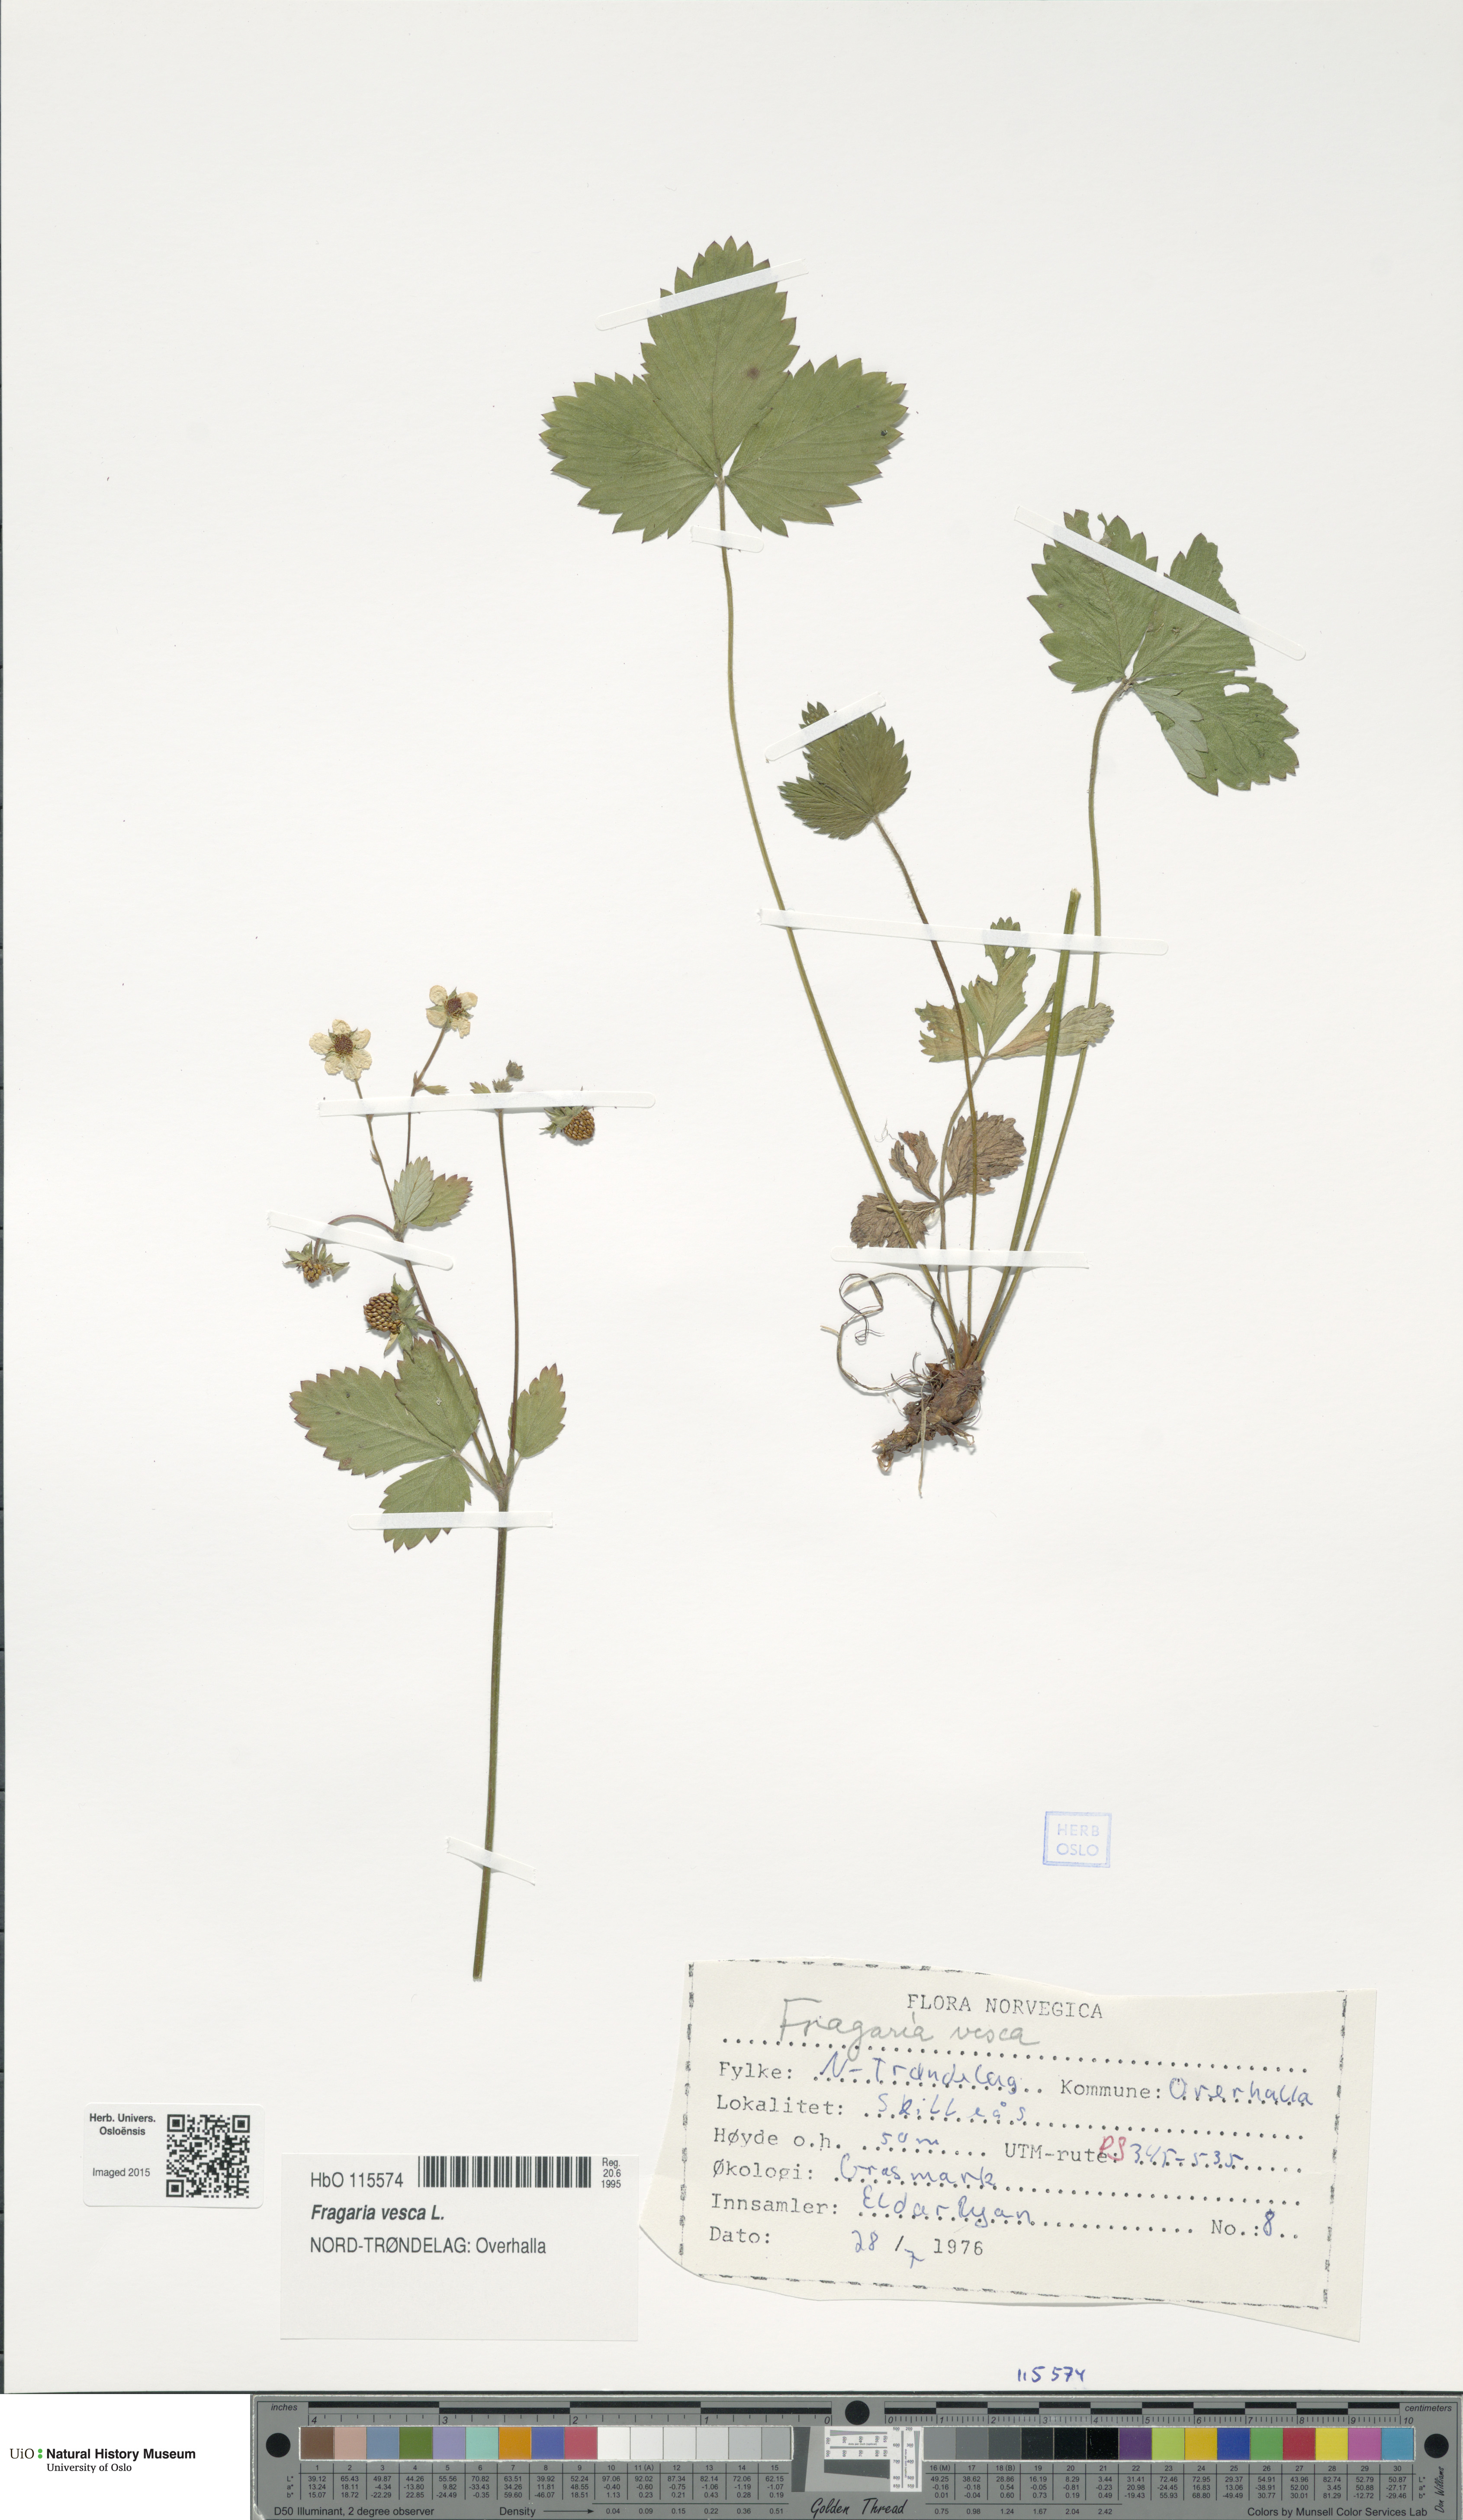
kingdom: Plantae
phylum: Tracheophyta
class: Magnoliopsida
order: Rosales
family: Rosaceae
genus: Fragaria
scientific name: Fragaria vesca
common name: Wild strawberry
